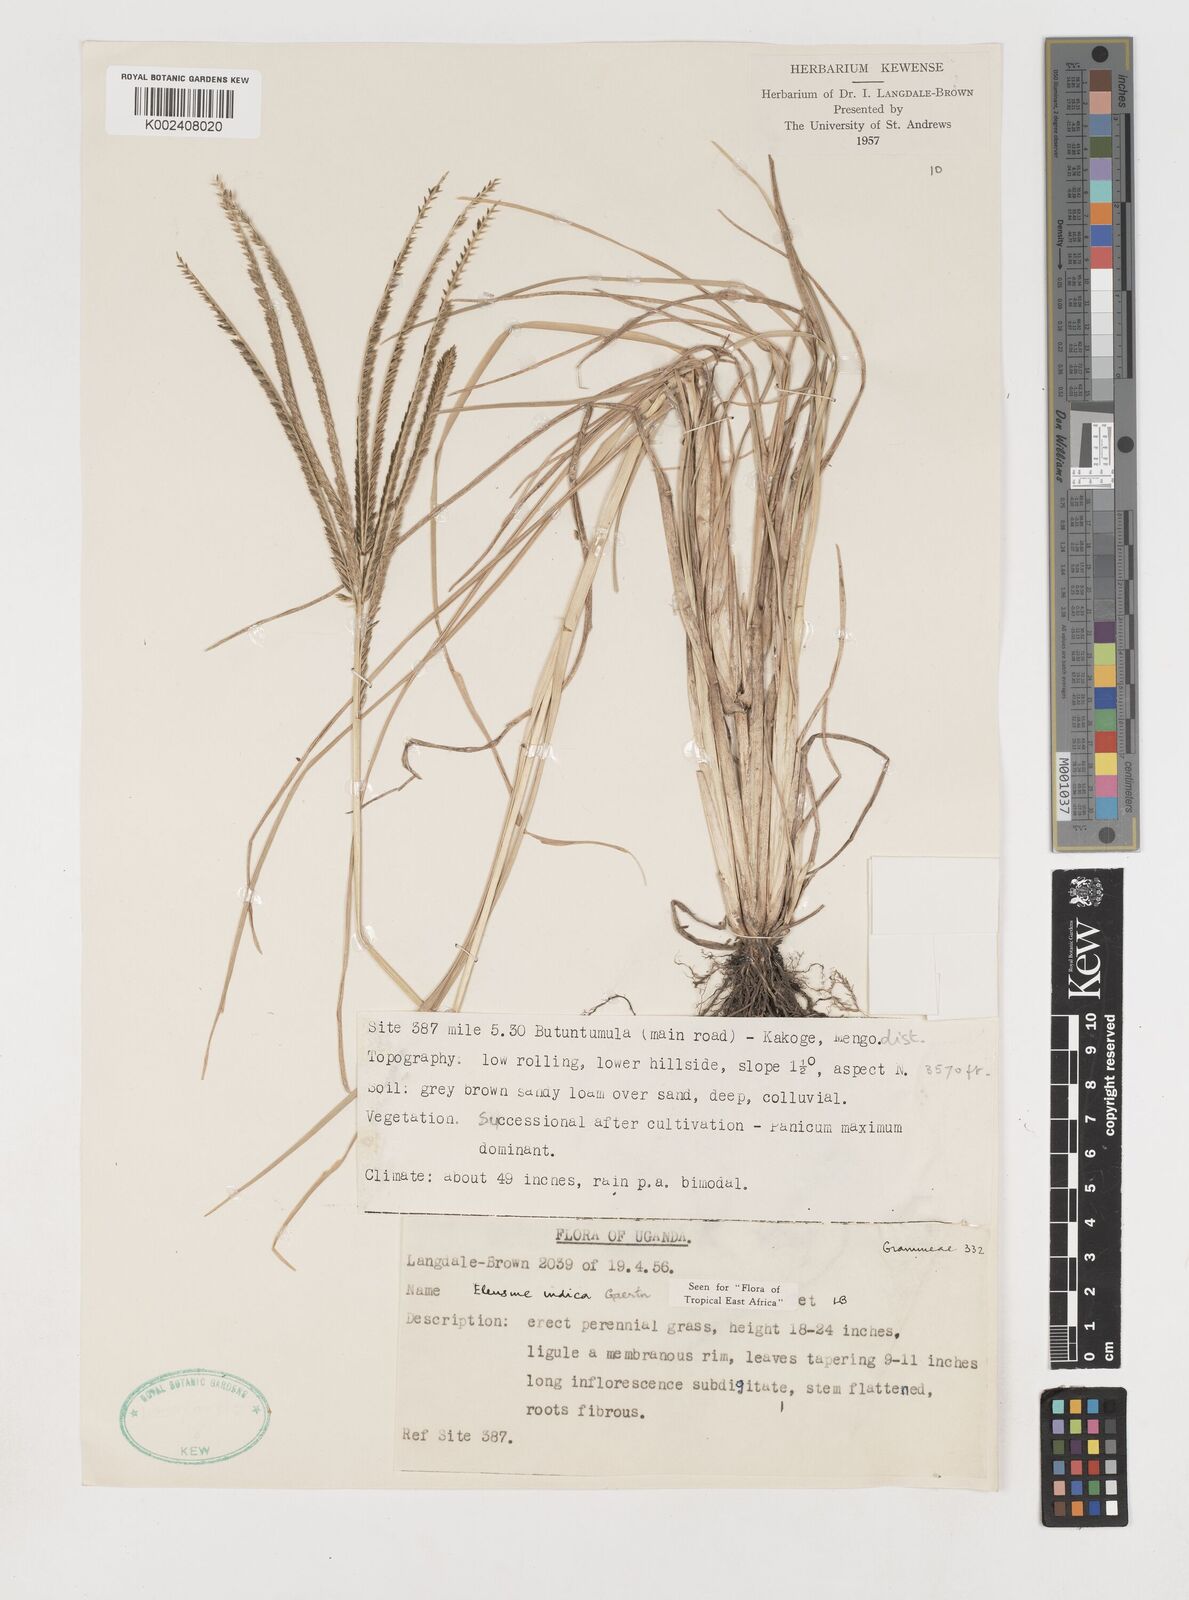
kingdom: Plantae
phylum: Tracheophyta
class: Liliopsida
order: Poales
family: Poaceae
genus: Eleusine
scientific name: Eleusine indica
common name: Yard-grass
